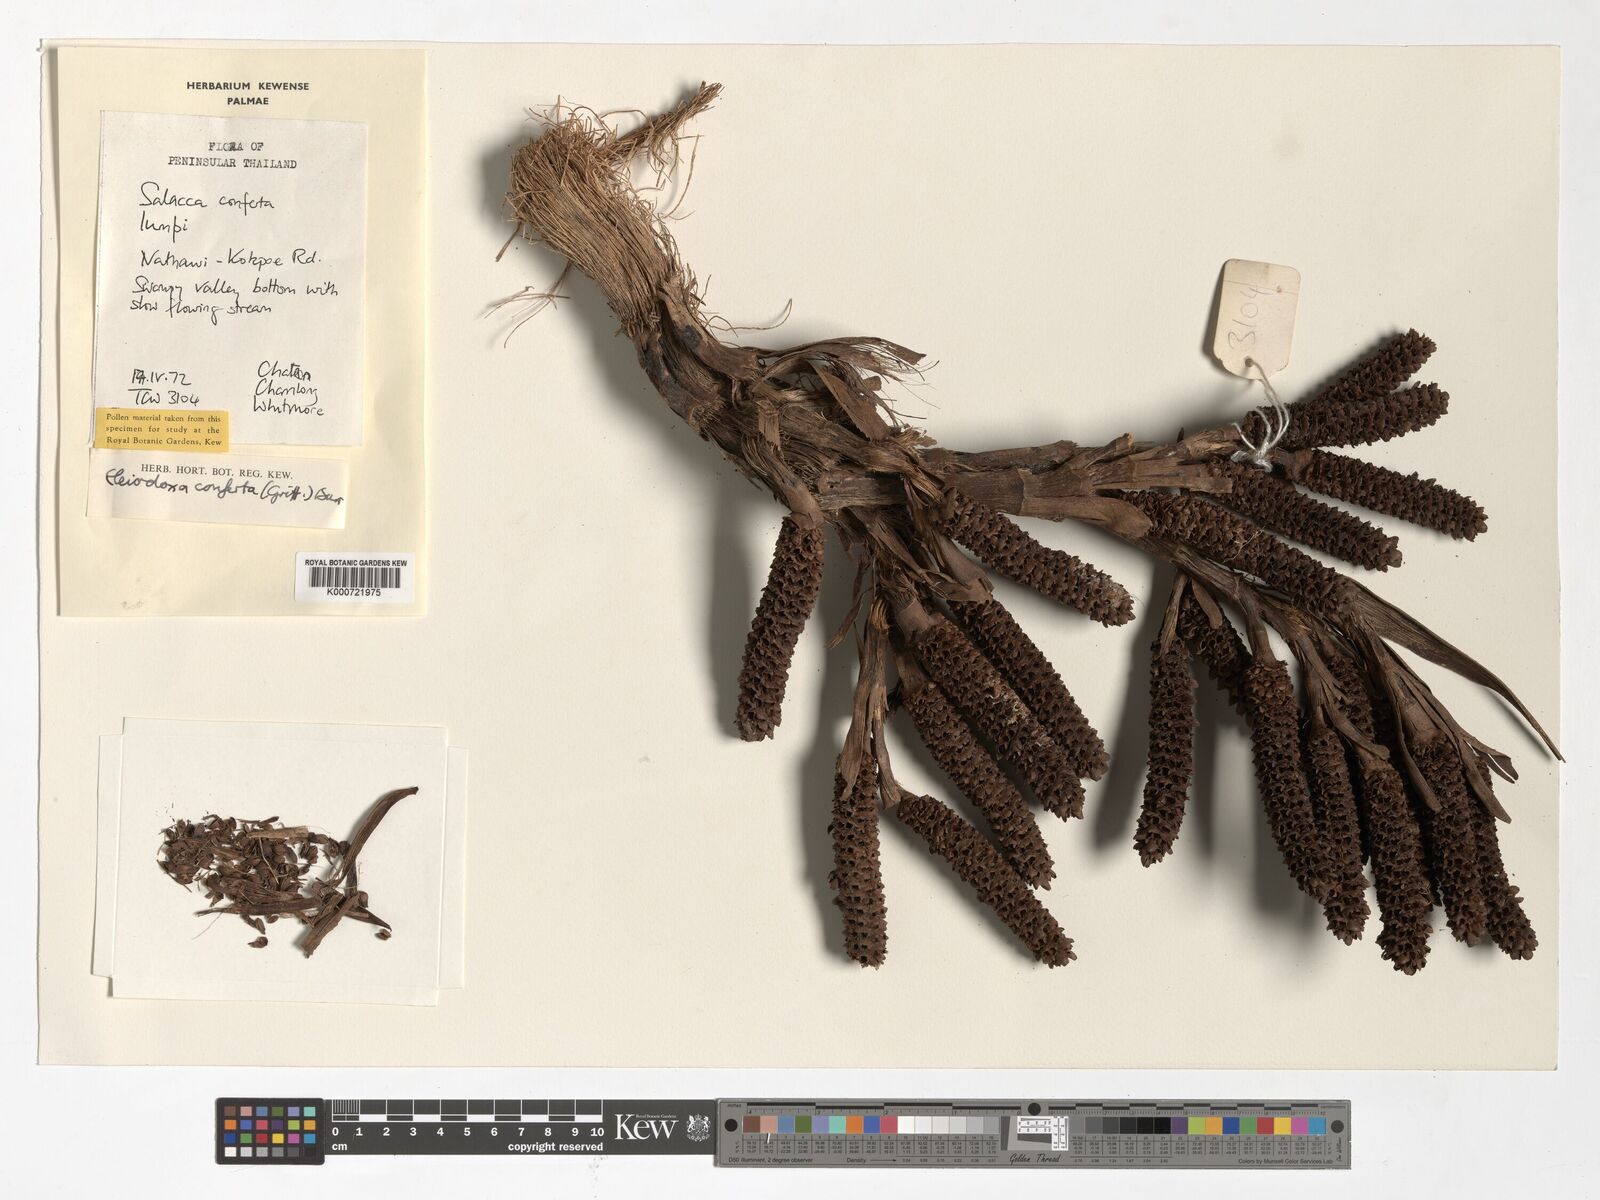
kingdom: Plantae
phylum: Tracheophyta
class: Liliopsida
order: Arecales
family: Arecaceae
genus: Eleiodoxa
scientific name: Eleiodoxa conferta
